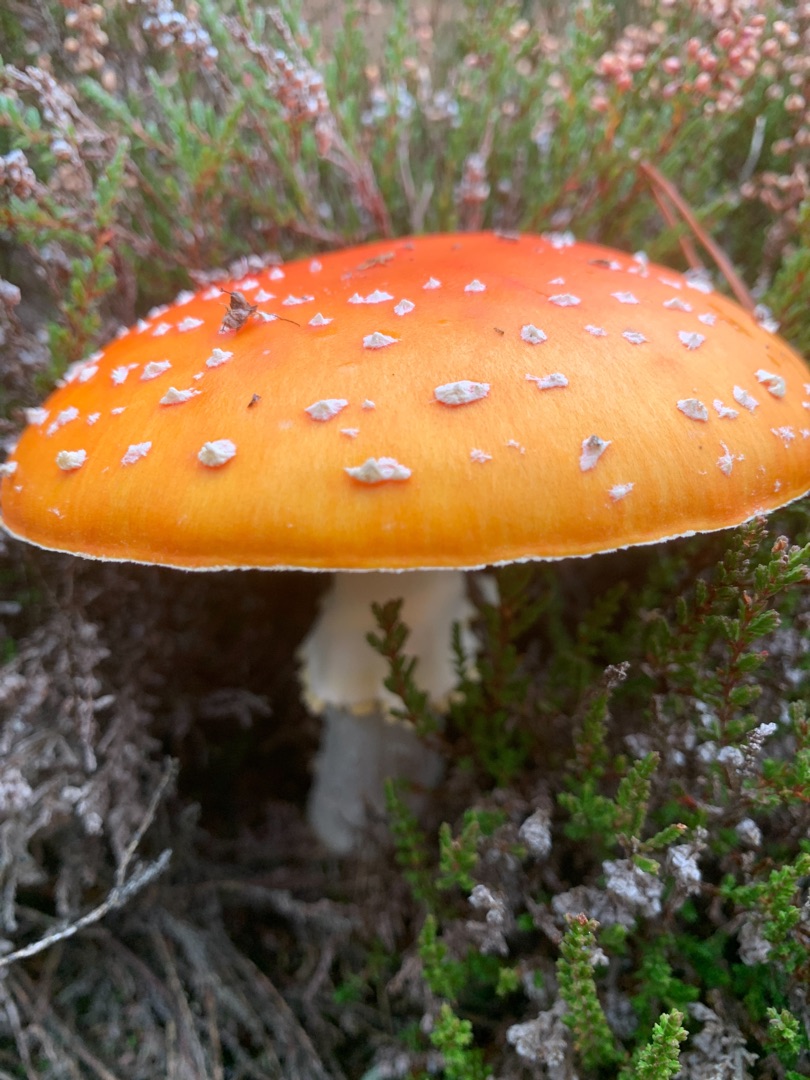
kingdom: Fungi
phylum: Basidiomycota
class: Agaricomycetes
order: Agaricales
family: Amanitaceae
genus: Amanita
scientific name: Amanita muscaria
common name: Rød fluesvamp
